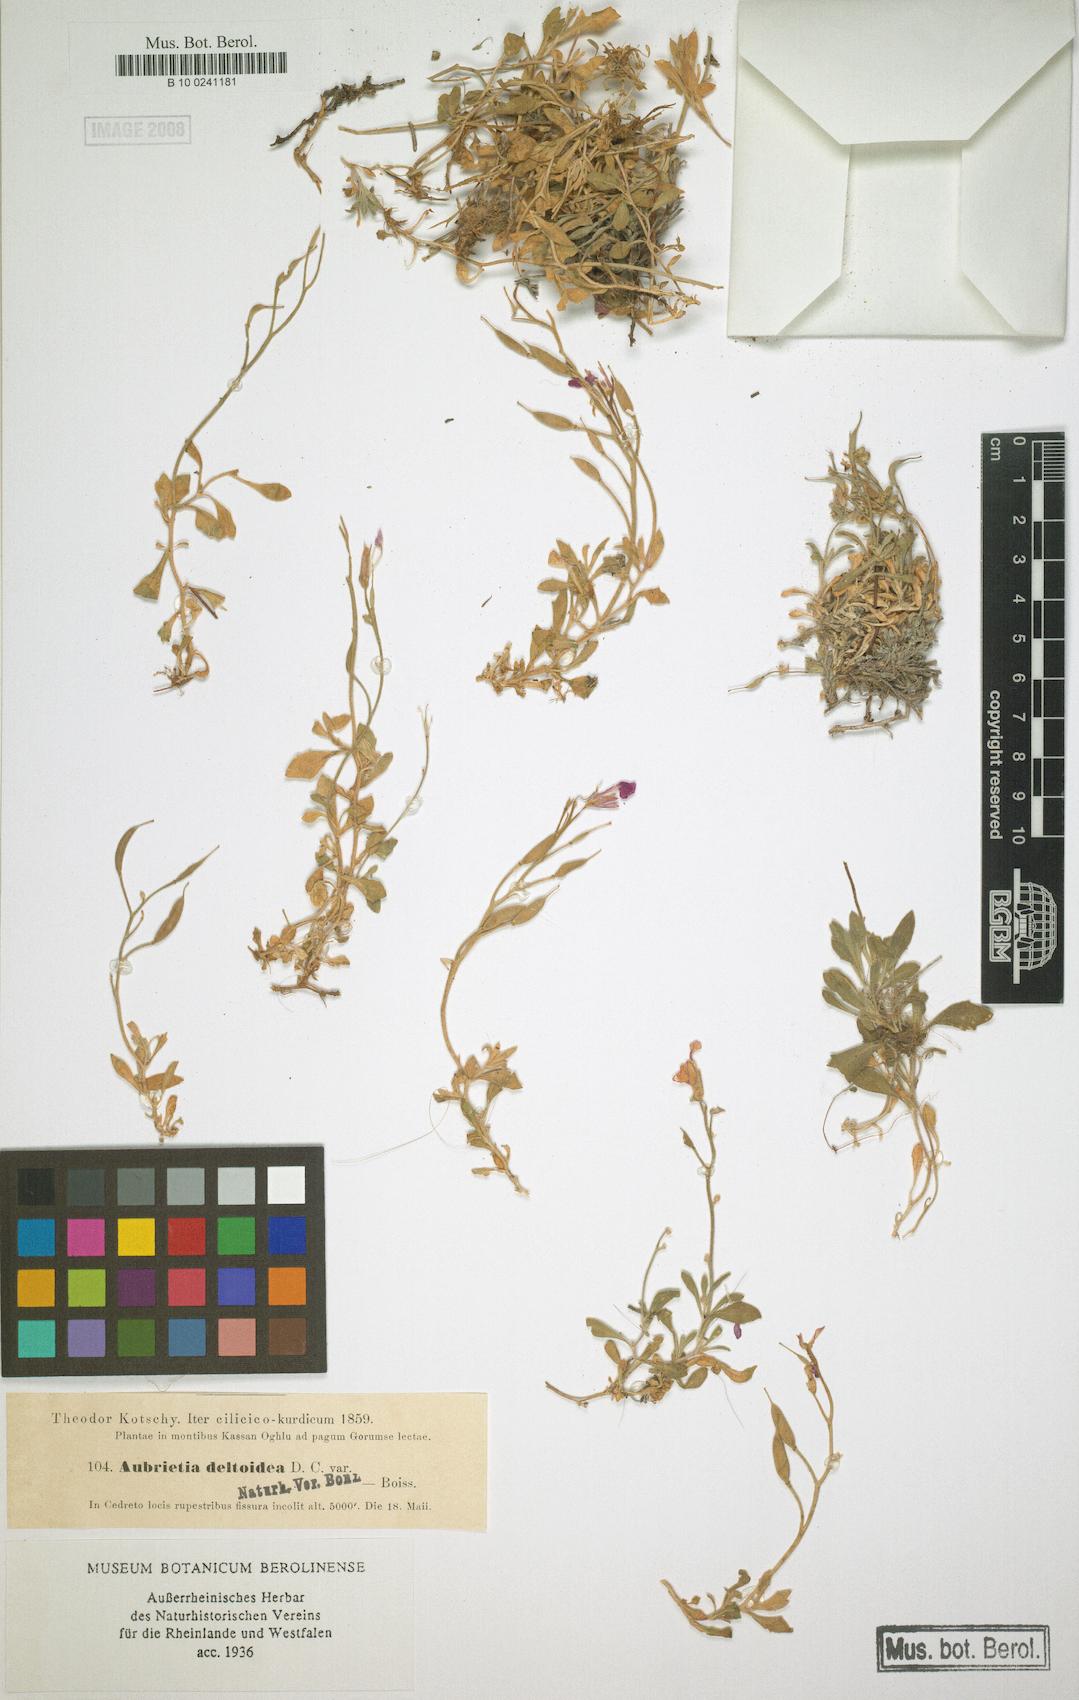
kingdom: Plantae
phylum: Tracheophyta
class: Magnoliopsida
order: Brassicales
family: Brassicaceae
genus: Aubrieta
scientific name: Aubrieta deltoidea
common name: Aubretia
